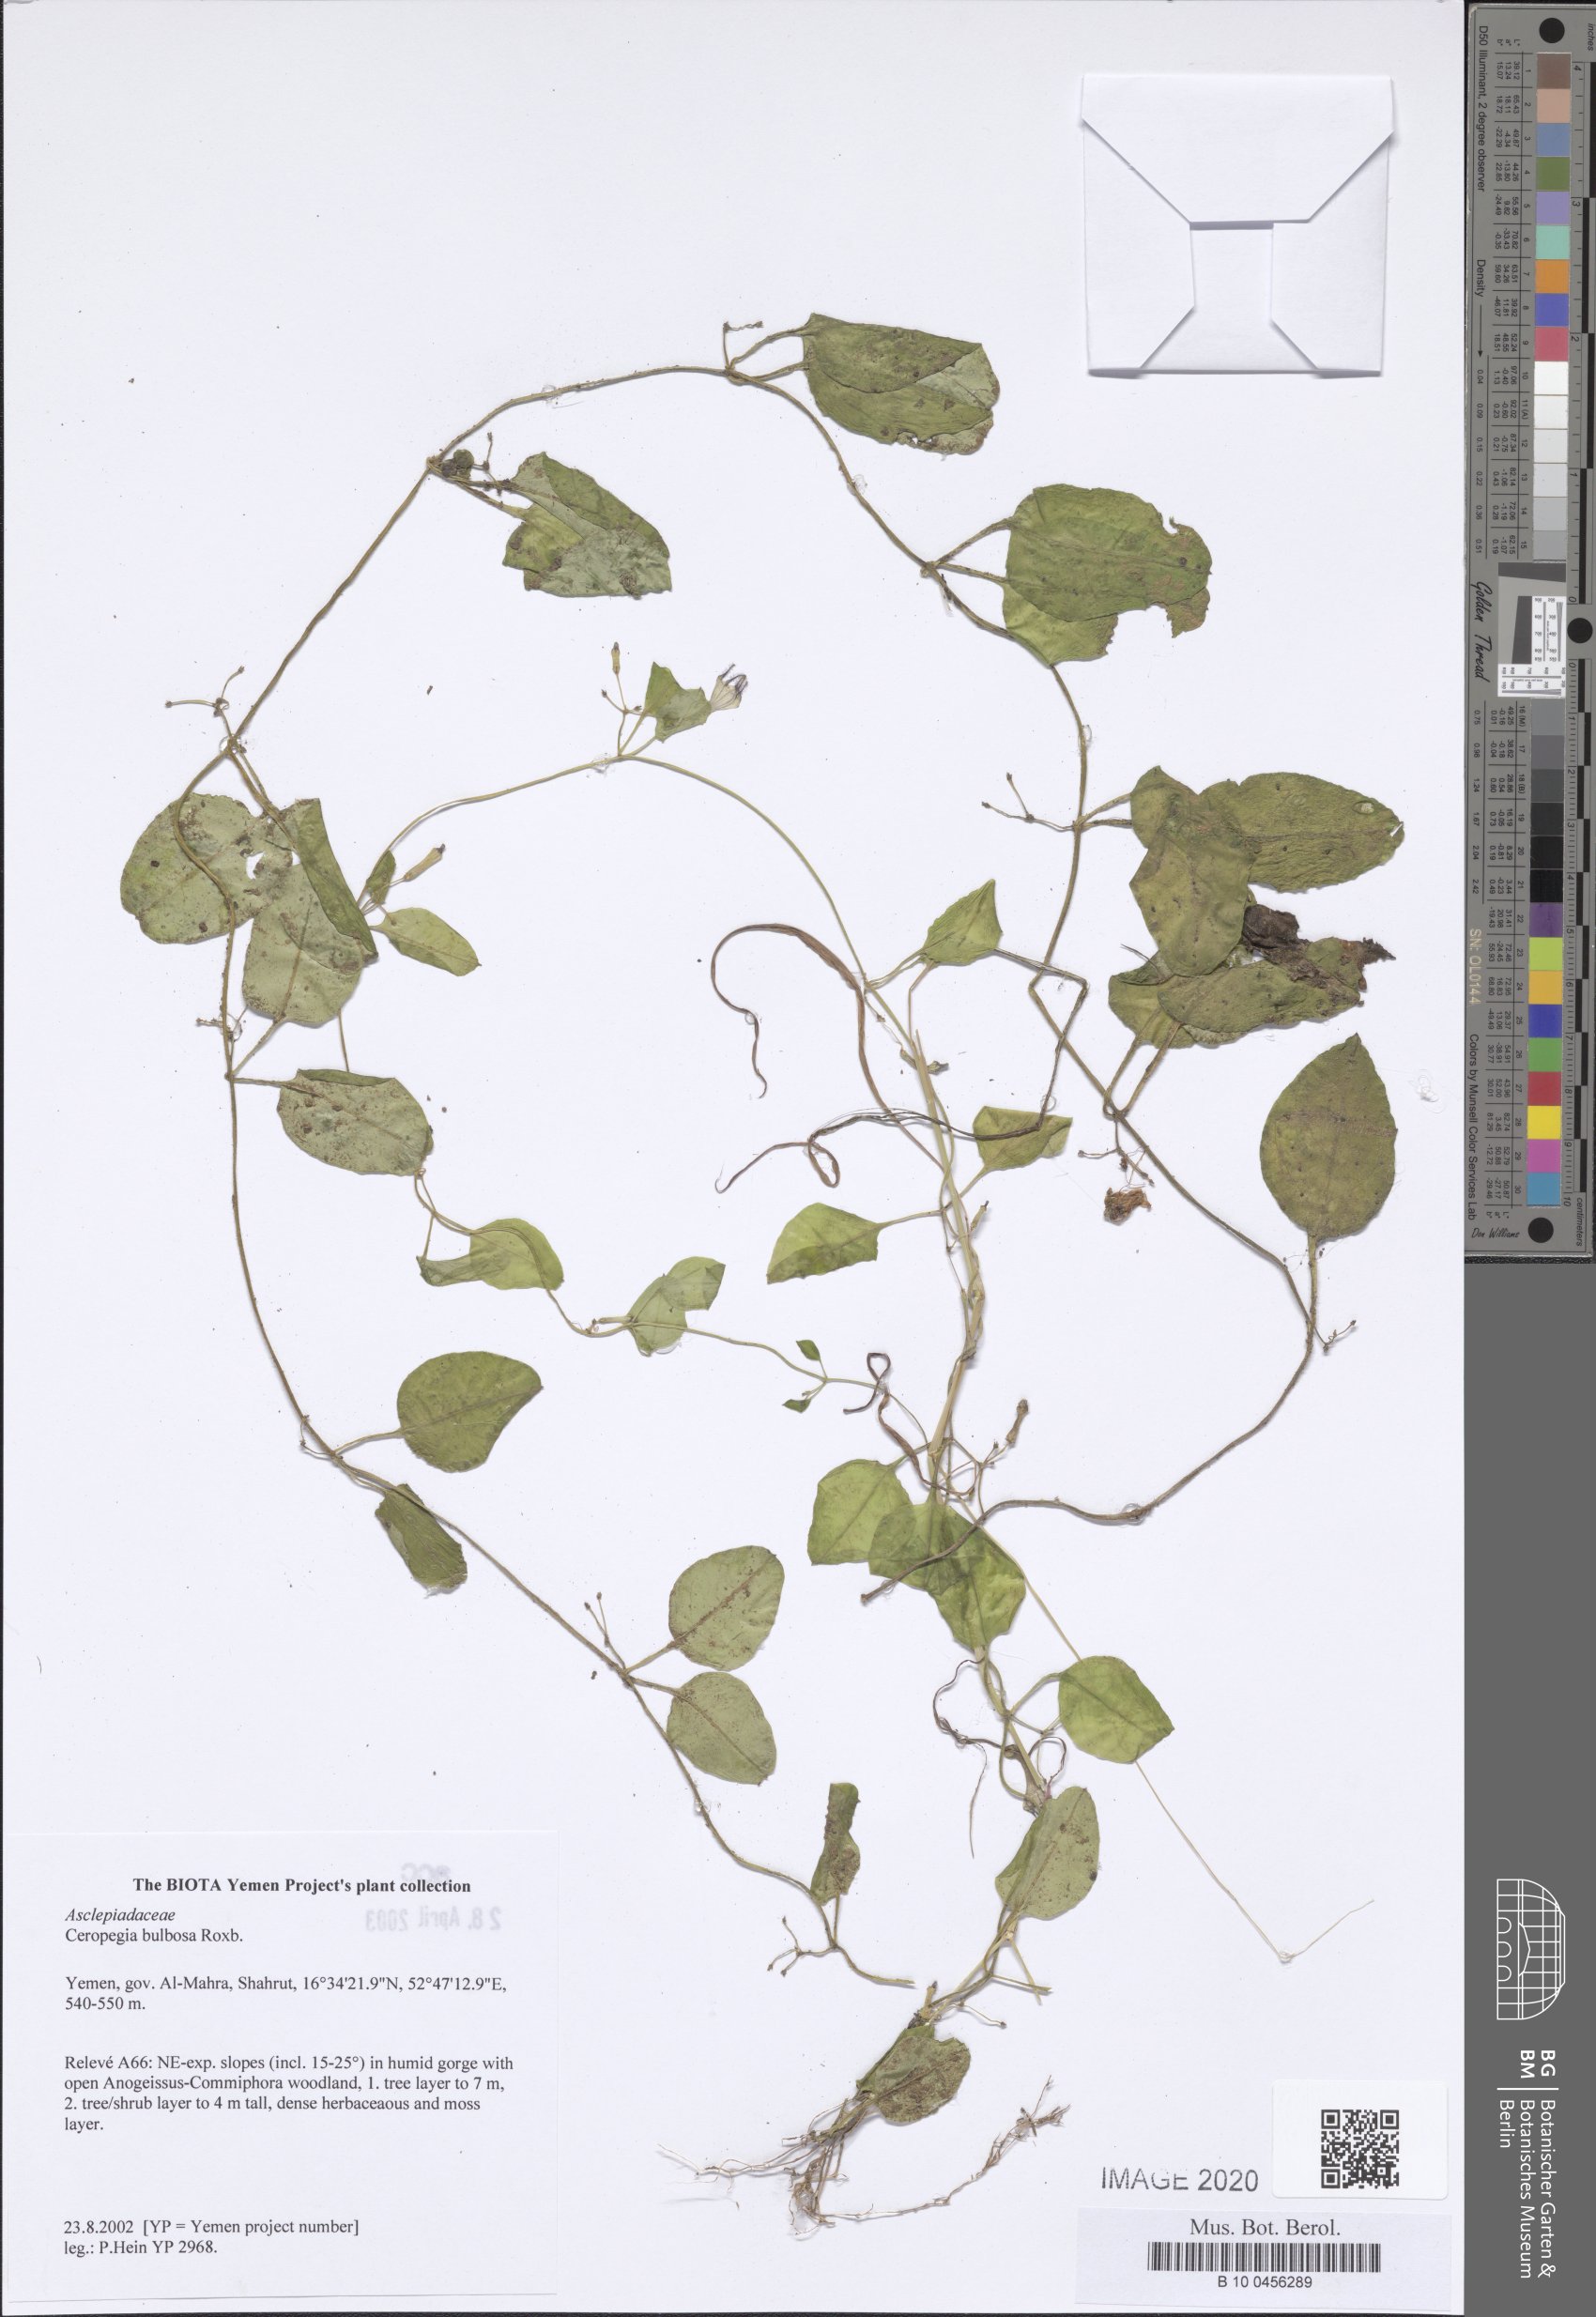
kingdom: Plantae
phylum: Tracheophyta
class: Magnoliopsida
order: Gentianales
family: Apocynaceae
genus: Ceropegia
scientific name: Ceropegia bulbosa
